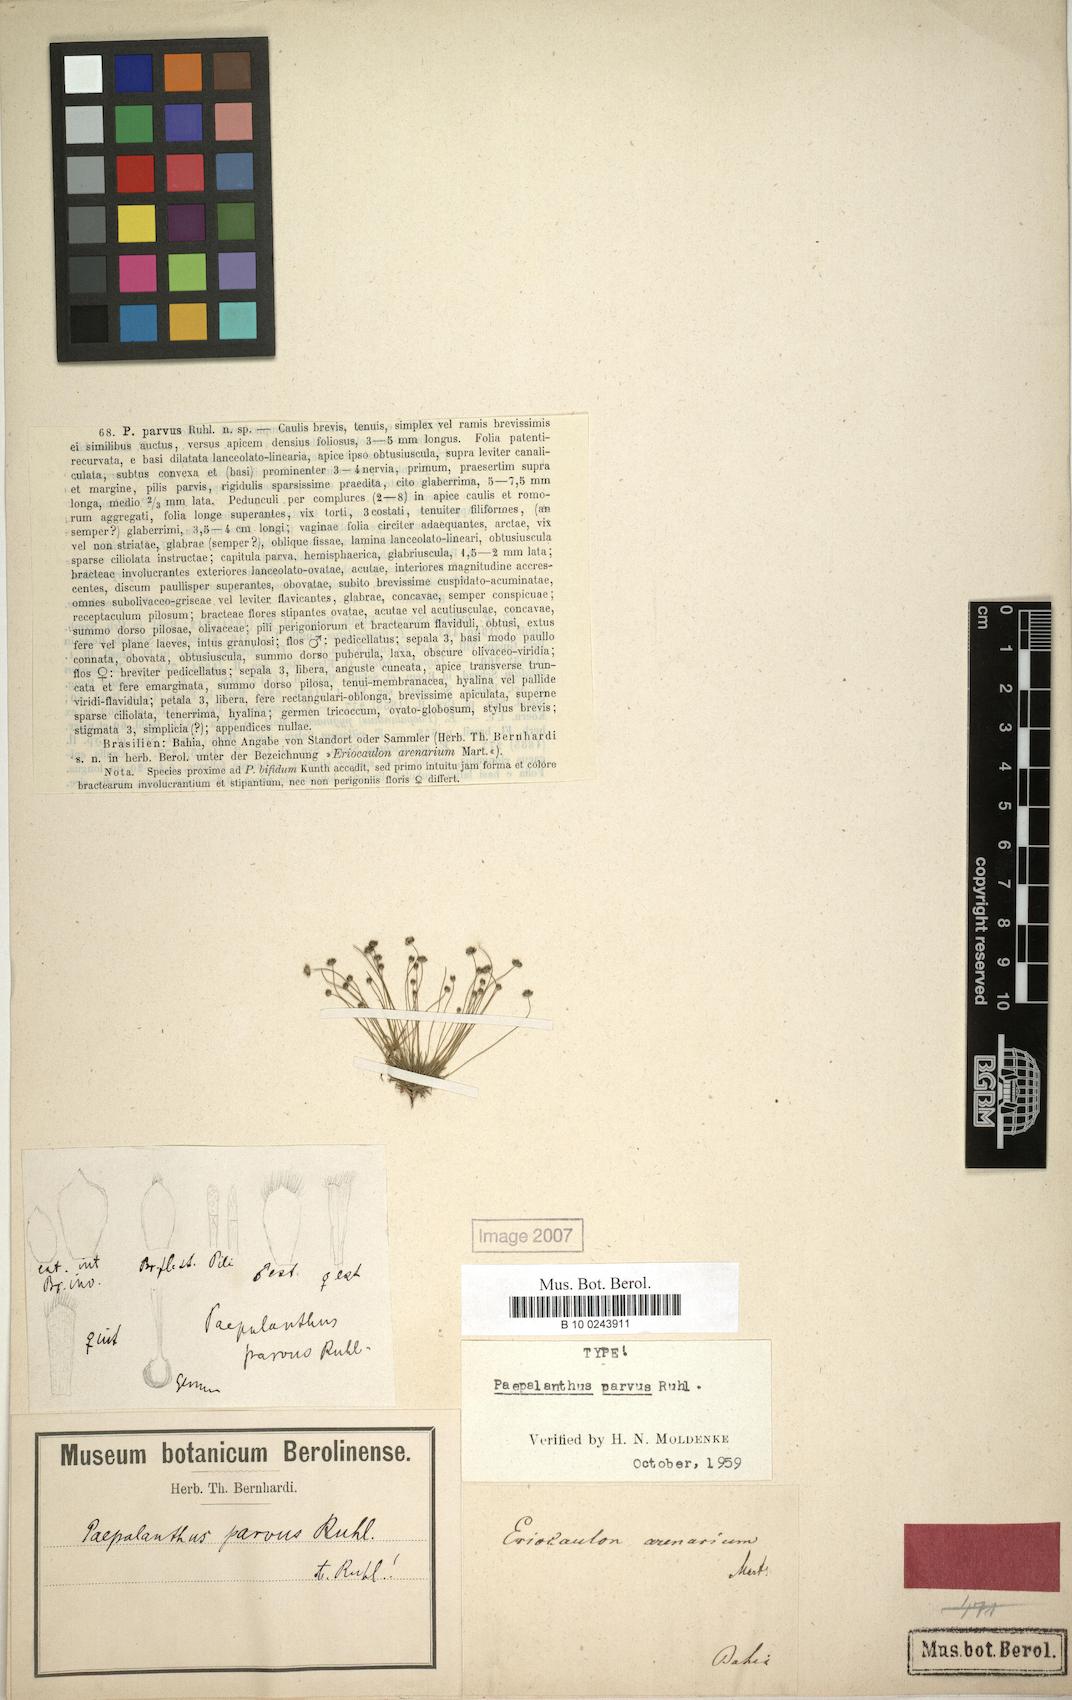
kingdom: Plantae
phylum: Tracheophyta
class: Liliopsida
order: Poales
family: Eriocaulaceae
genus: Paepalanthus
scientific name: Paepalanthus parvus
